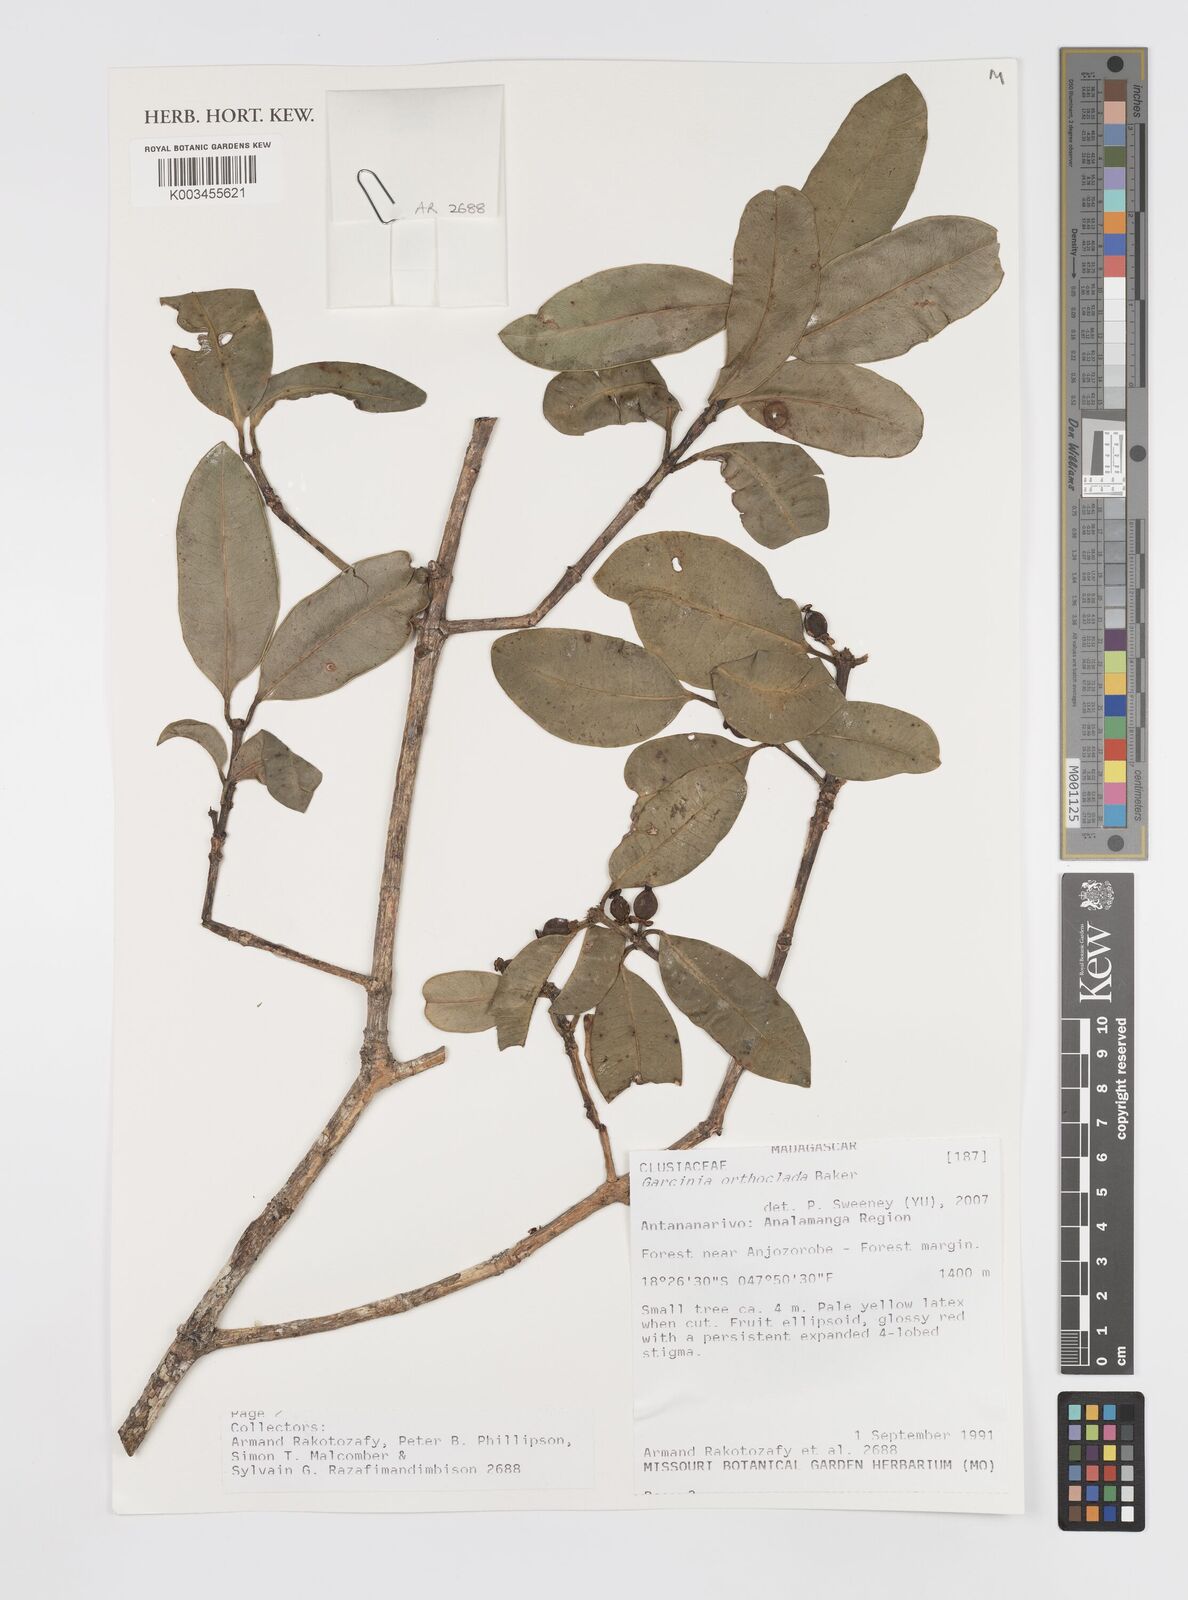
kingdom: Plantae
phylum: Tracheophyta
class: Magnoliopsida
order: Malpighiales
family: Clusiaceae
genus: Garcinia
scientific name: Garcinia orthoclada
